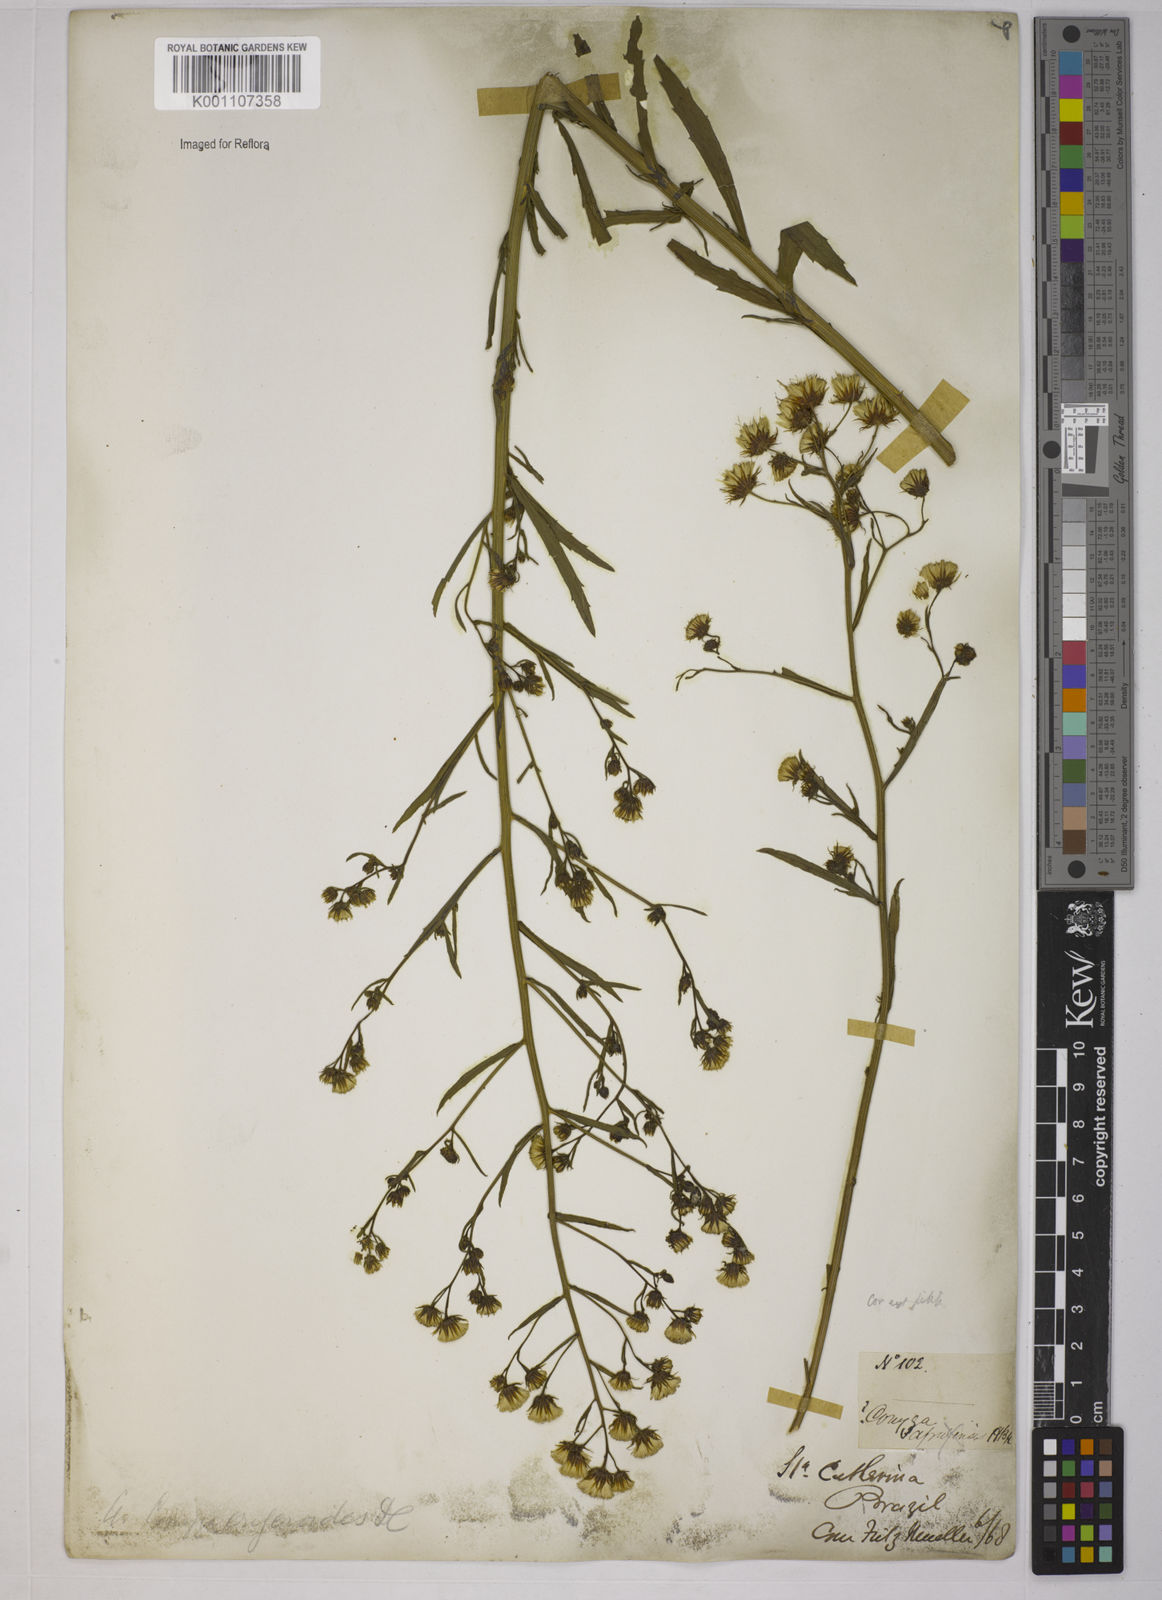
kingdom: Plantae
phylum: Tracheophyta
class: Magnoliopsida
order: Asterales
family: Asteraceae
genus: Erigeron
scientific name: Erigeron canadensis
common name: Canadian fleabane
